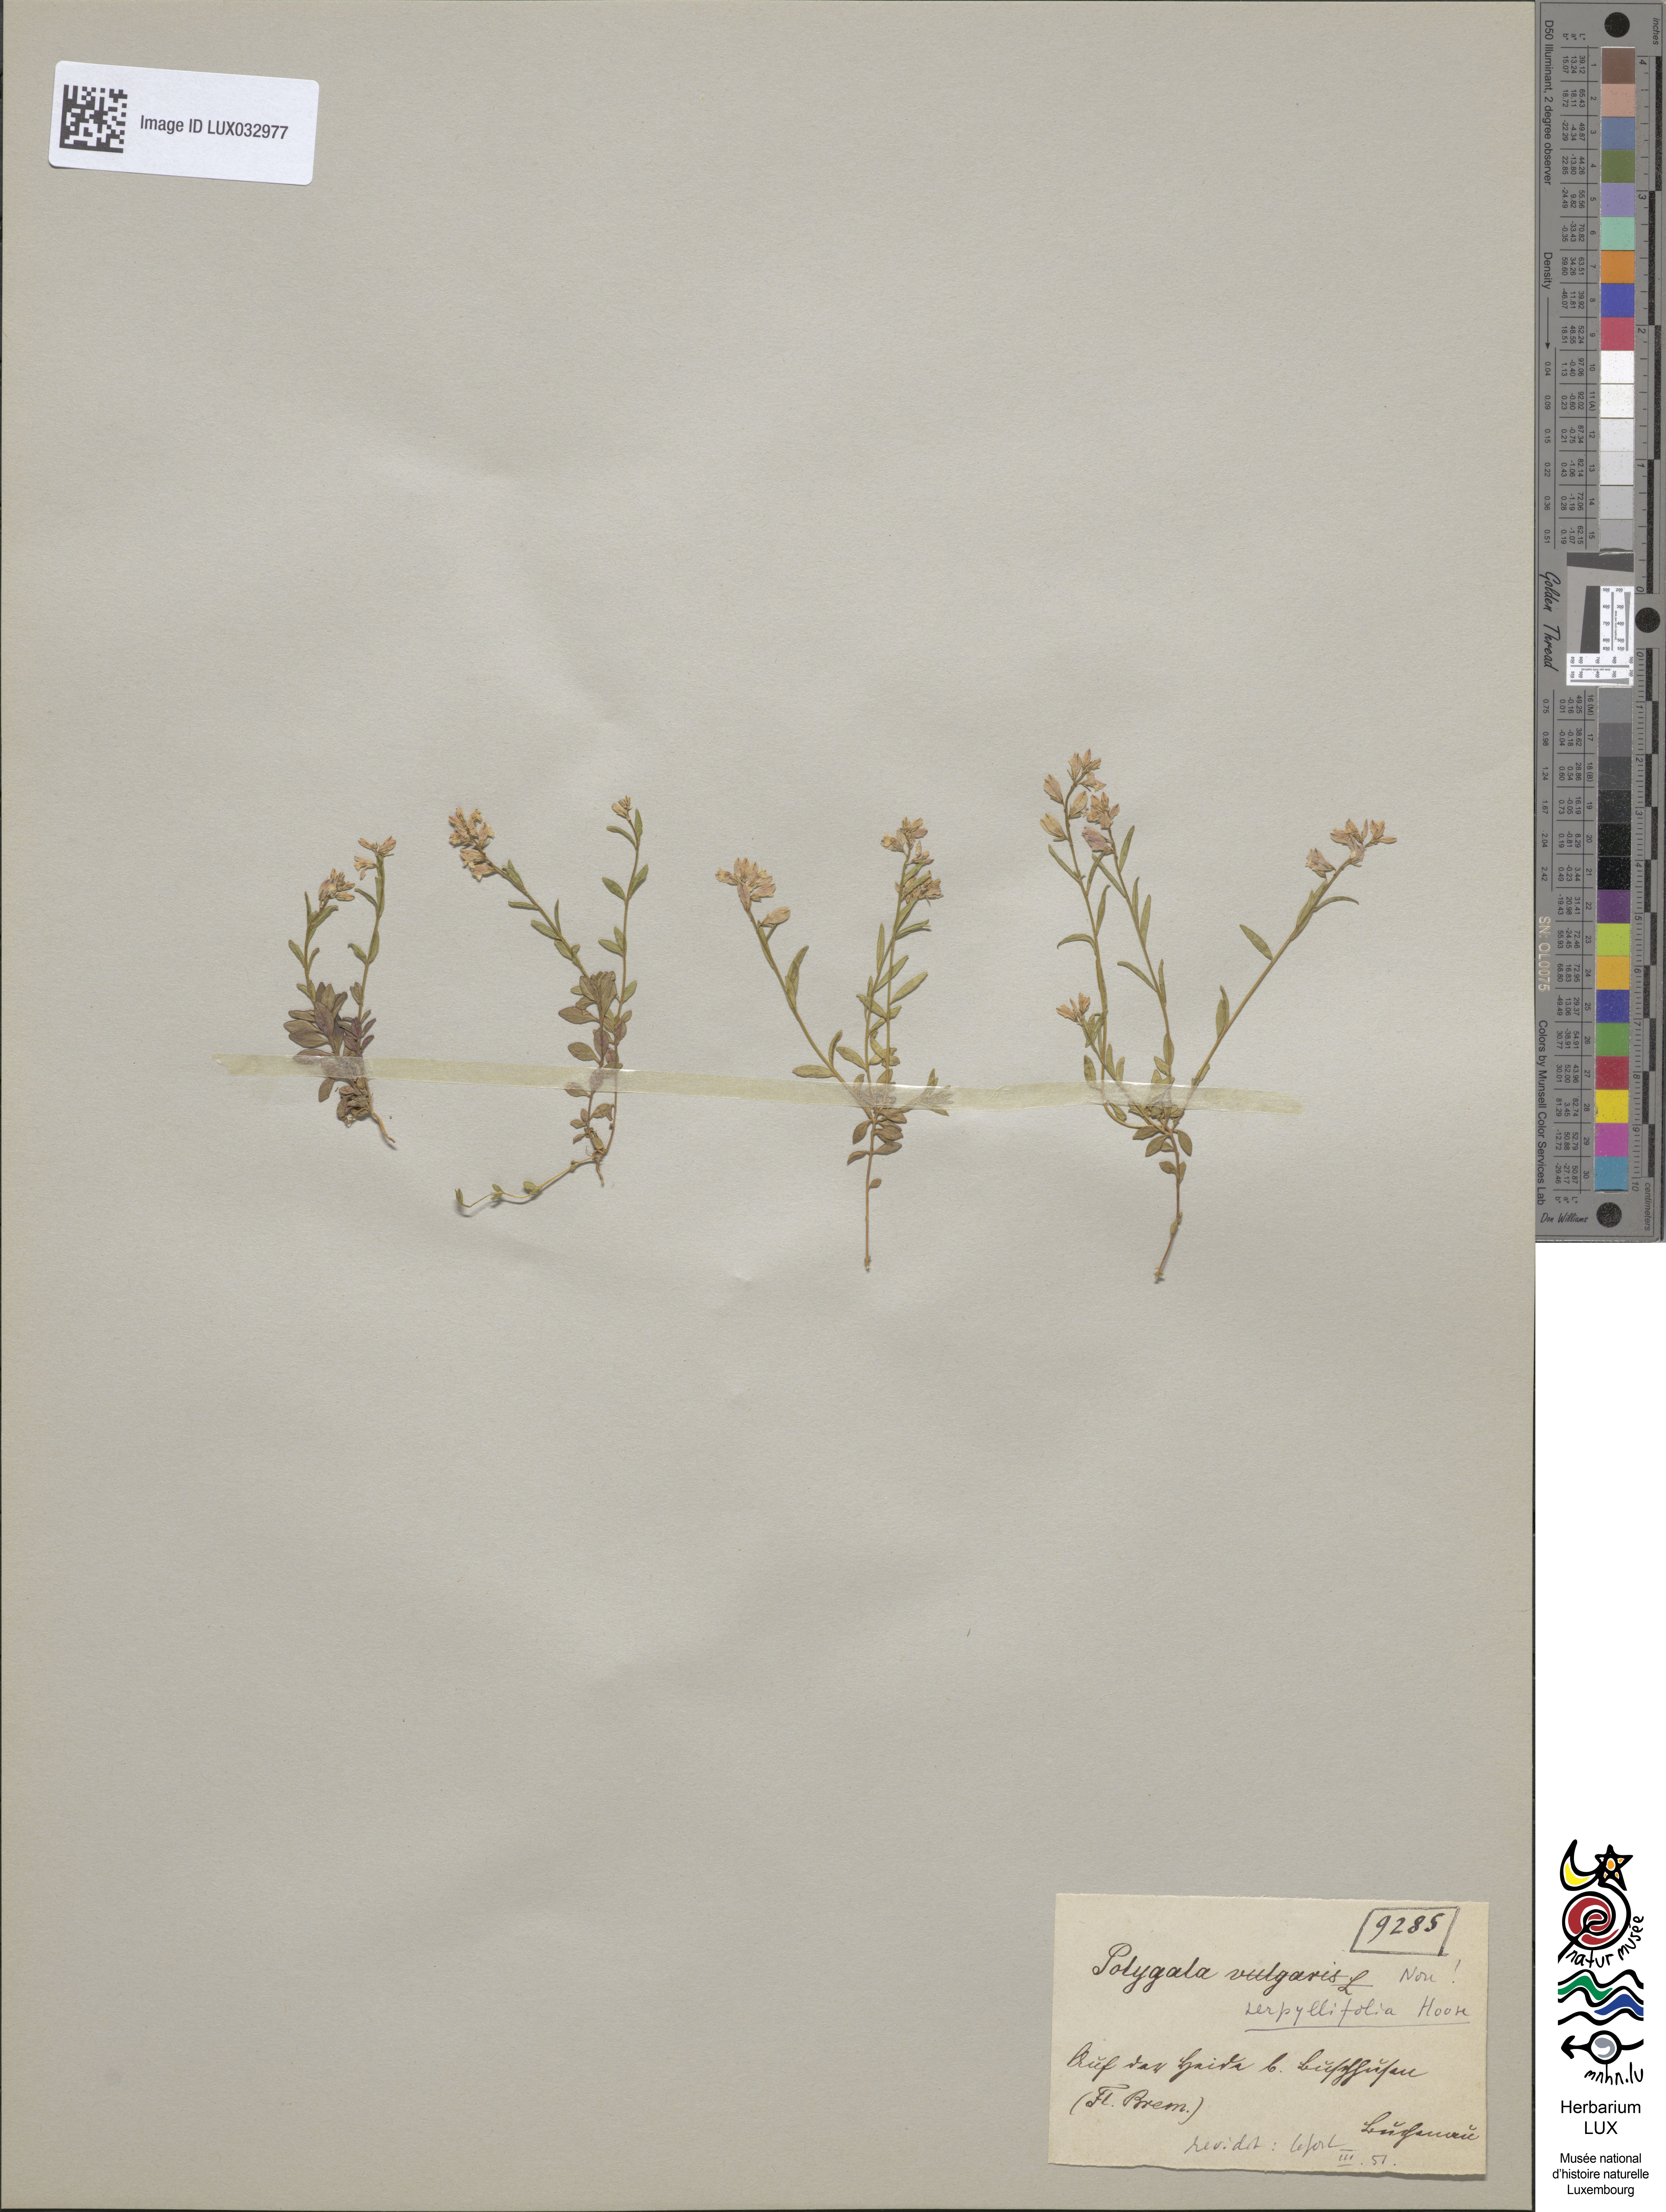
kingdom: Plantae
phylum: Tracheophyta
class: Magnoliopsida
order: Fabales
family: Polygalaceae
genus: Polygala
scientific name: Polygala vulgaris
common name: Common milkwort
